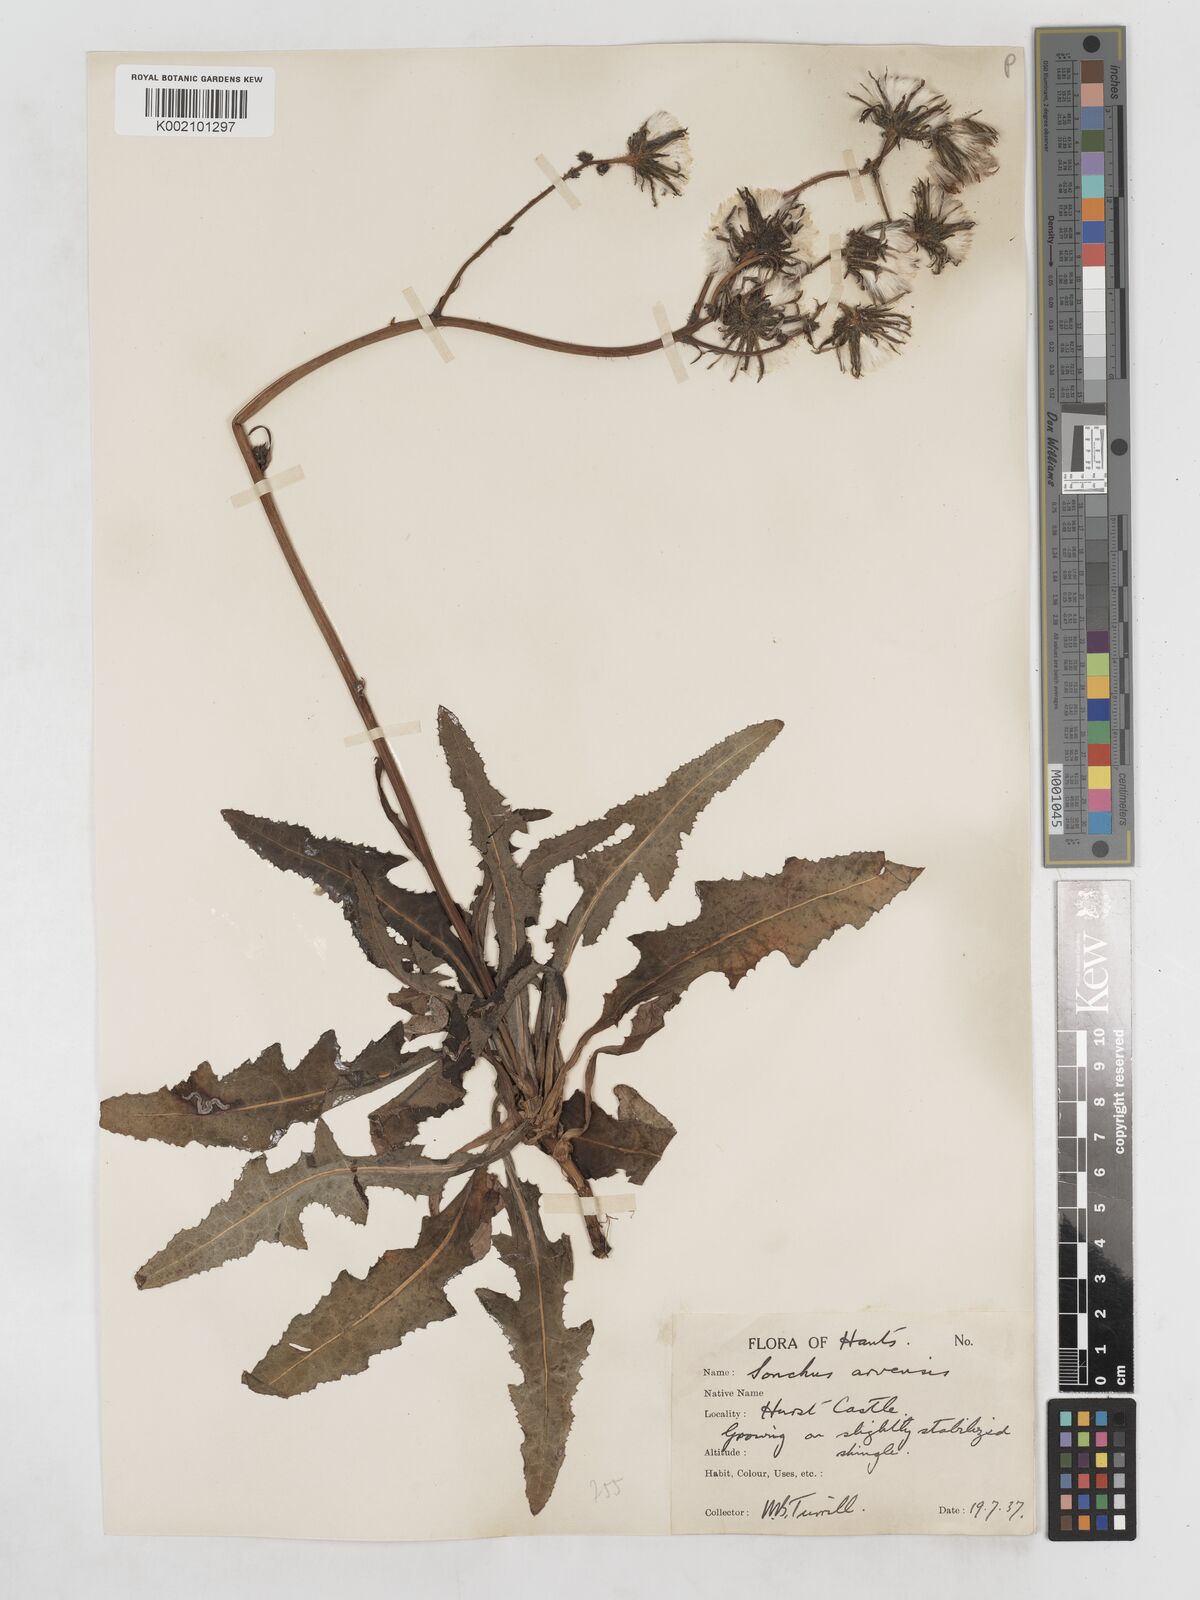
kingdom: Plantae
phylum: Tracheophyta
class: Magnoliopsida
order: Asterales
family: Asteraceae
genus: Sonchus
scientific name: Sonchus arvensis
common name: Perennial sow-thistle
